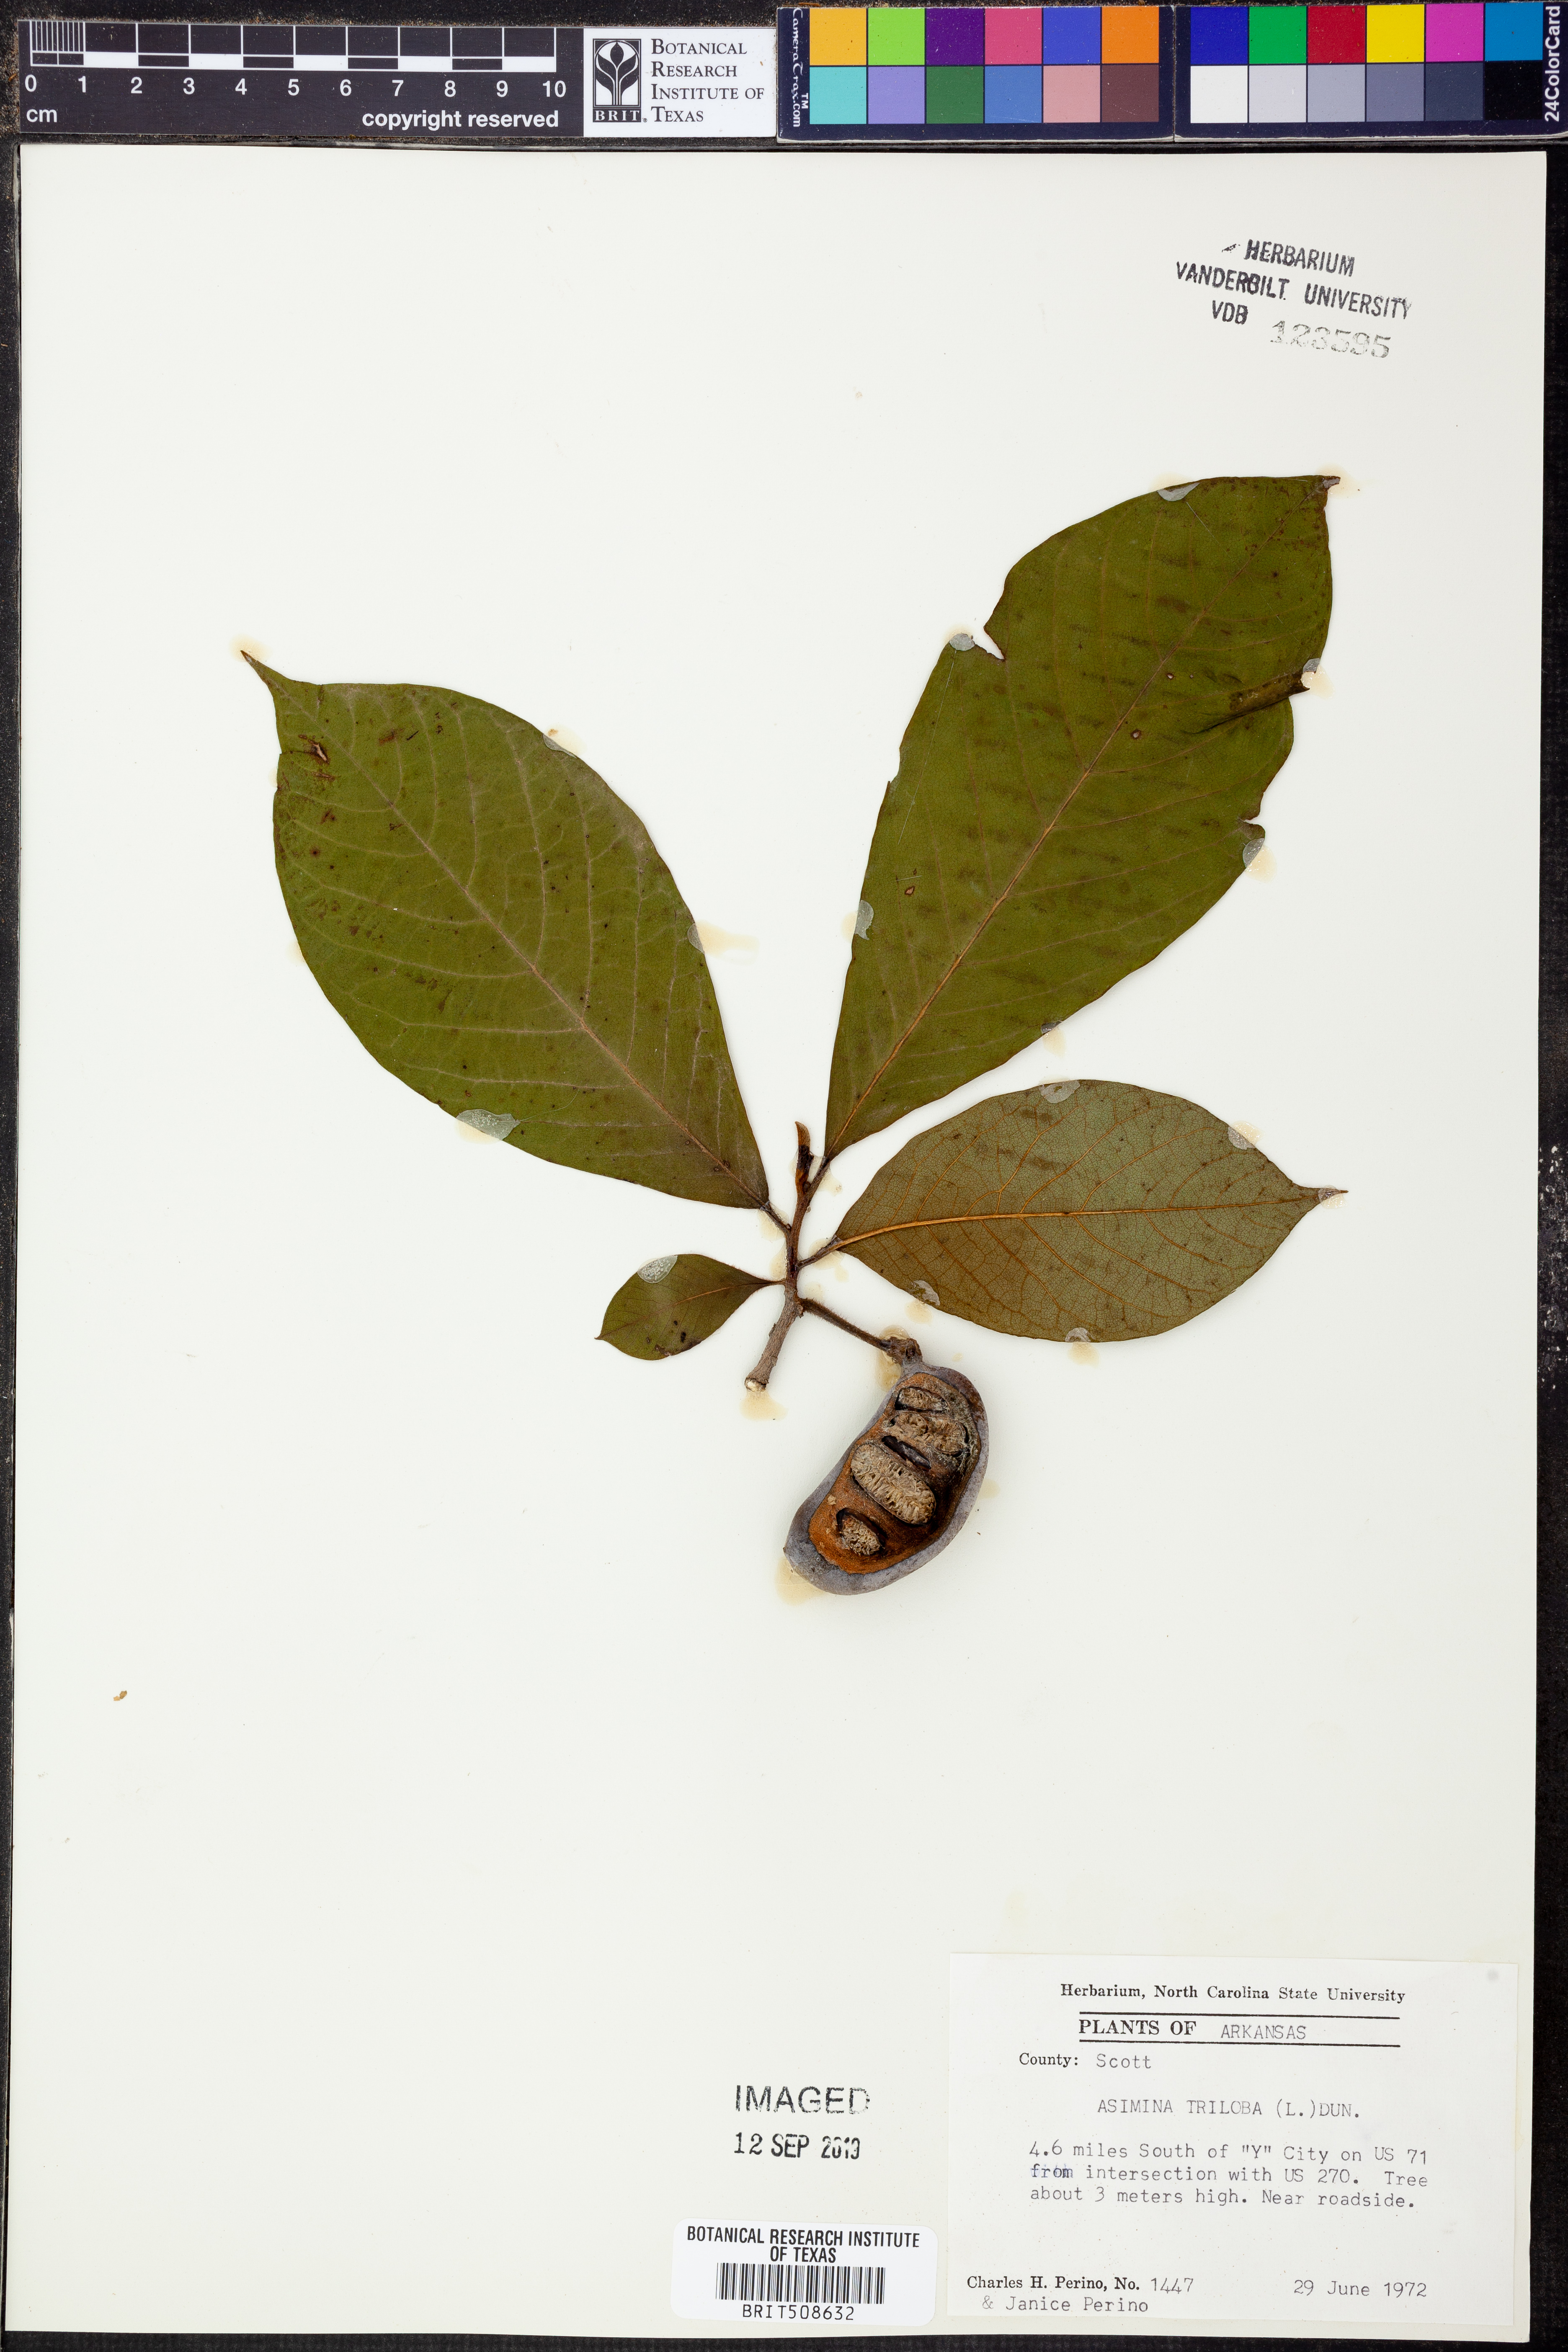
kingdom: Plantae
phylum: Tracheophyta
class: Magnoliopsida
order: Magnoliales
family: Annonaceae
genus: Asimina
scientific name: Asimina triloba
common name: Dog-banana
